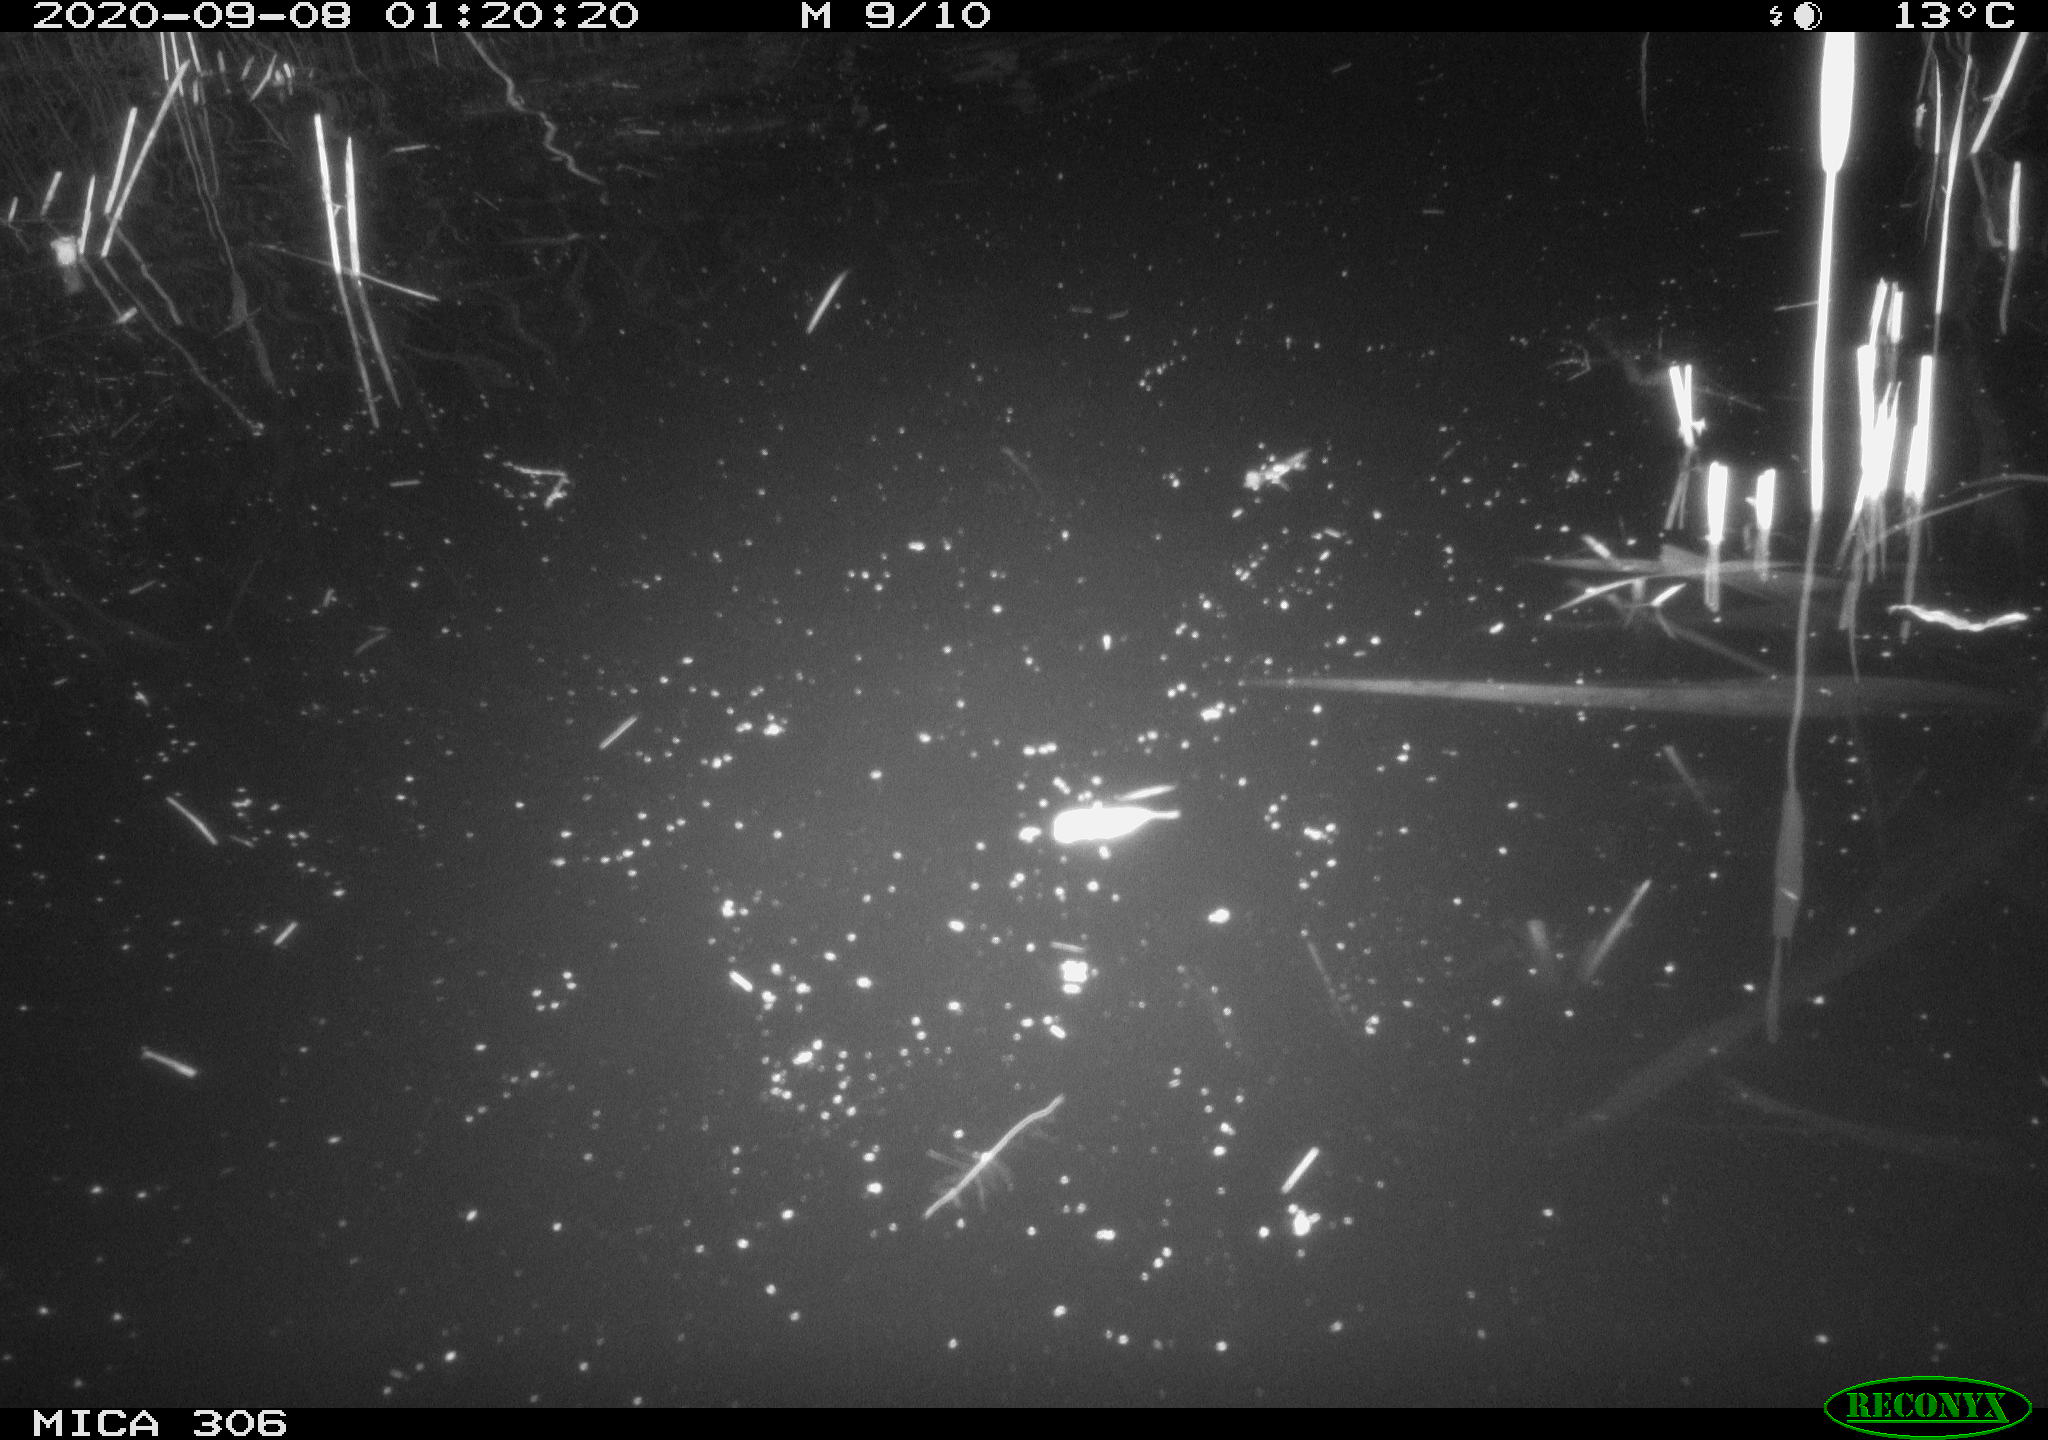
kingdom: Animalia
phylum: Chordata
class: Mammalia
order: Rodentia
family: Muridae
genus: Rattus
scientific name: Rattus norvegicus
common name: Brown rat
